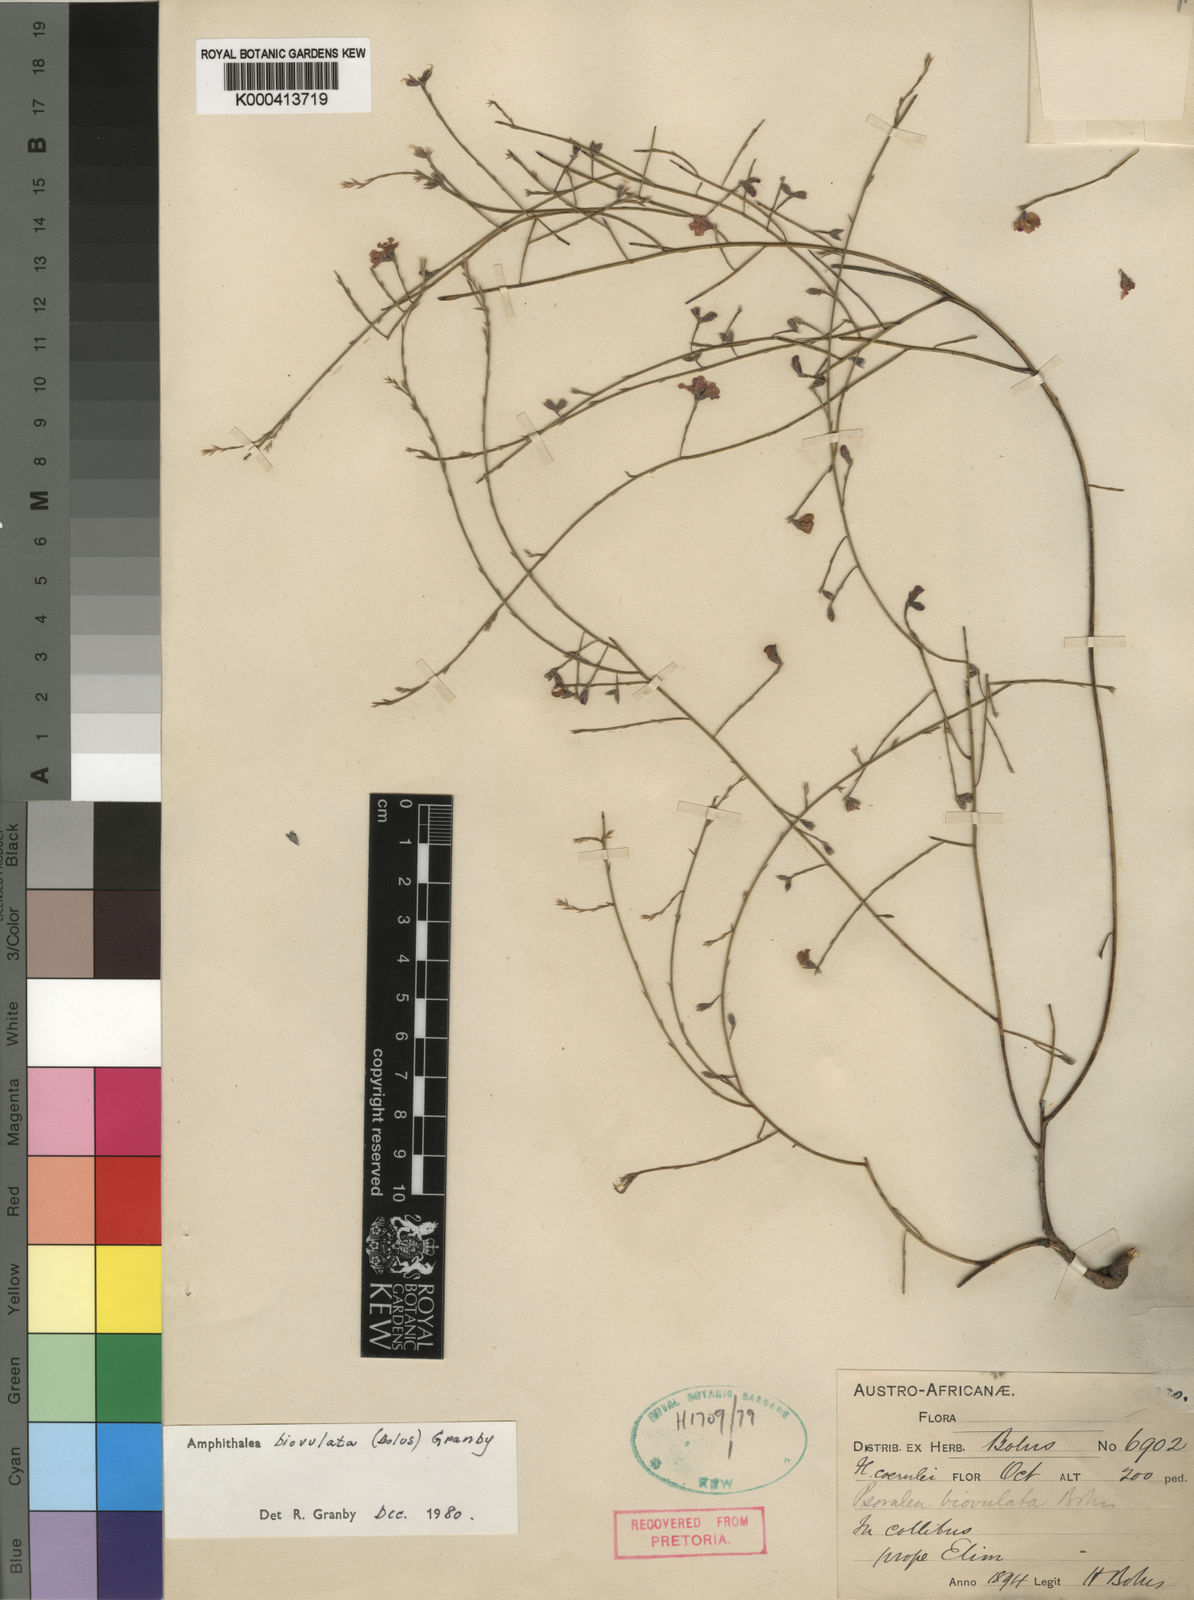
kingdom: Plantae
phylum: Tracheophyta
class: Magnoliopsida
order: Fabales
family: Fabaceae
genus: Amphithalea
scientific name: Amphithalea biovulata
